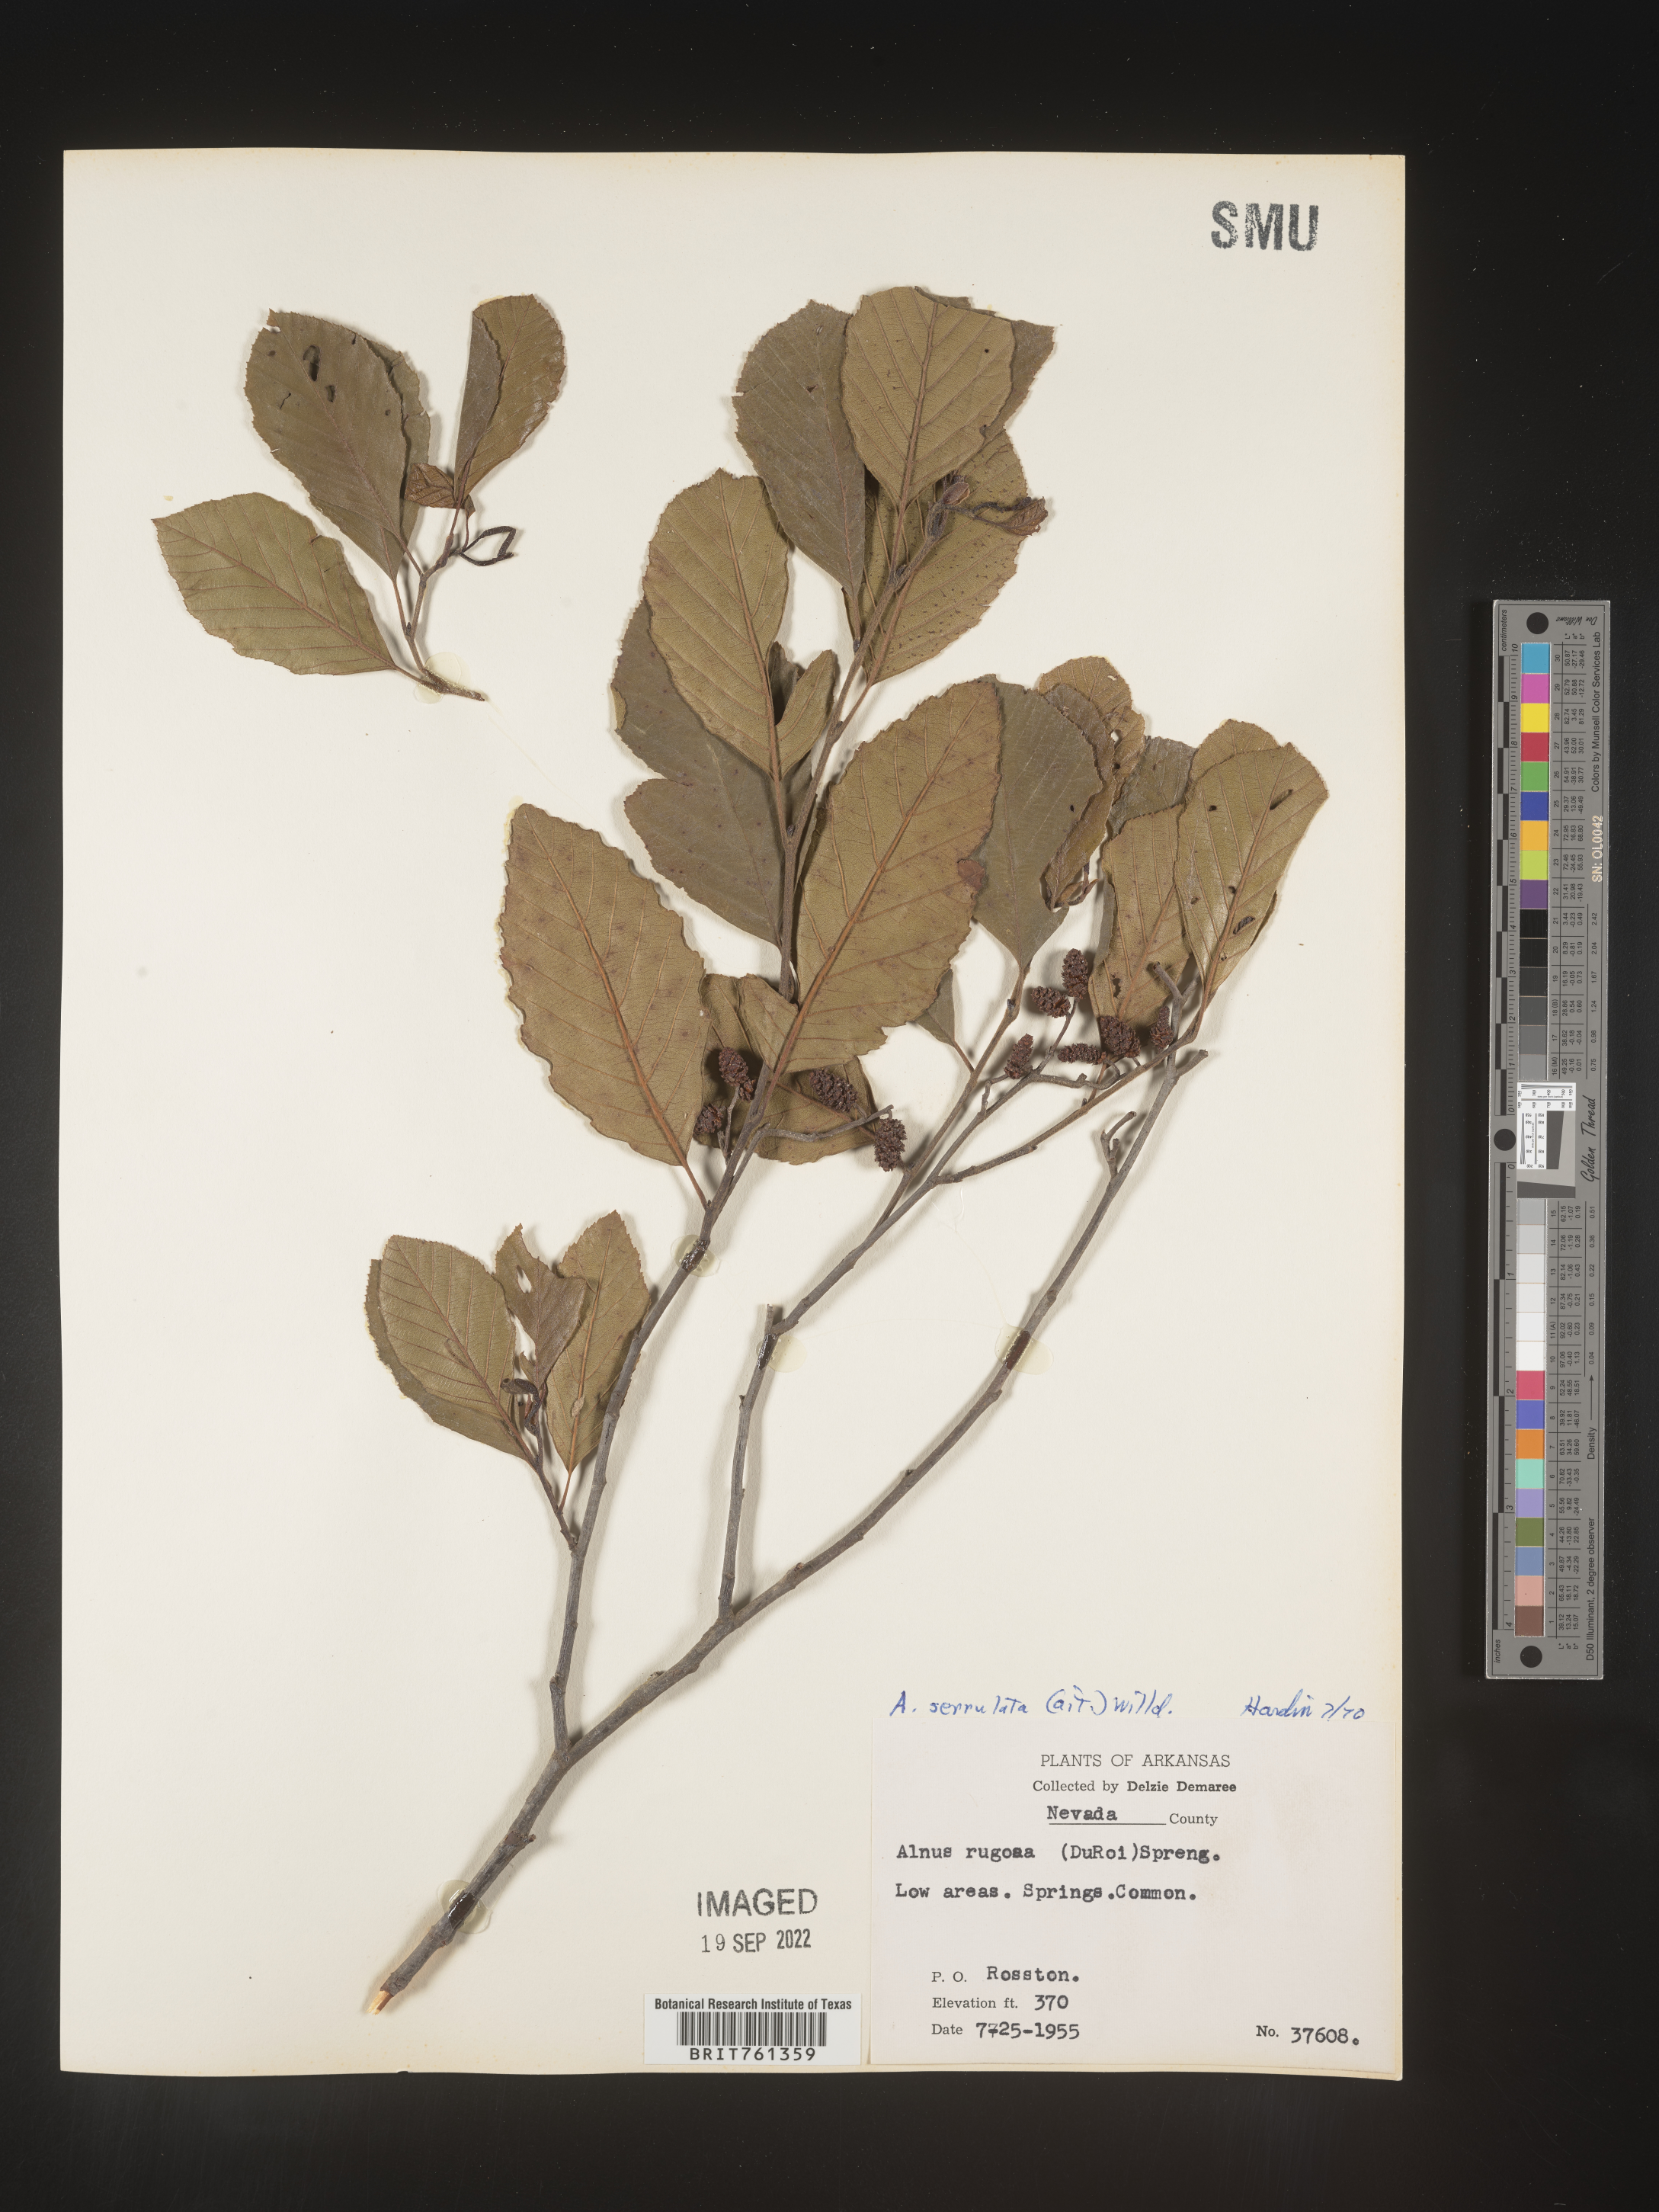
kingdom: Plantae
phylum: Tracheophyta
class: Magnoliopsida
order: Fagales
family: Betulaceae
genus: Alnus
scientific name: Alnus serrulata
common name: Hazel alder
